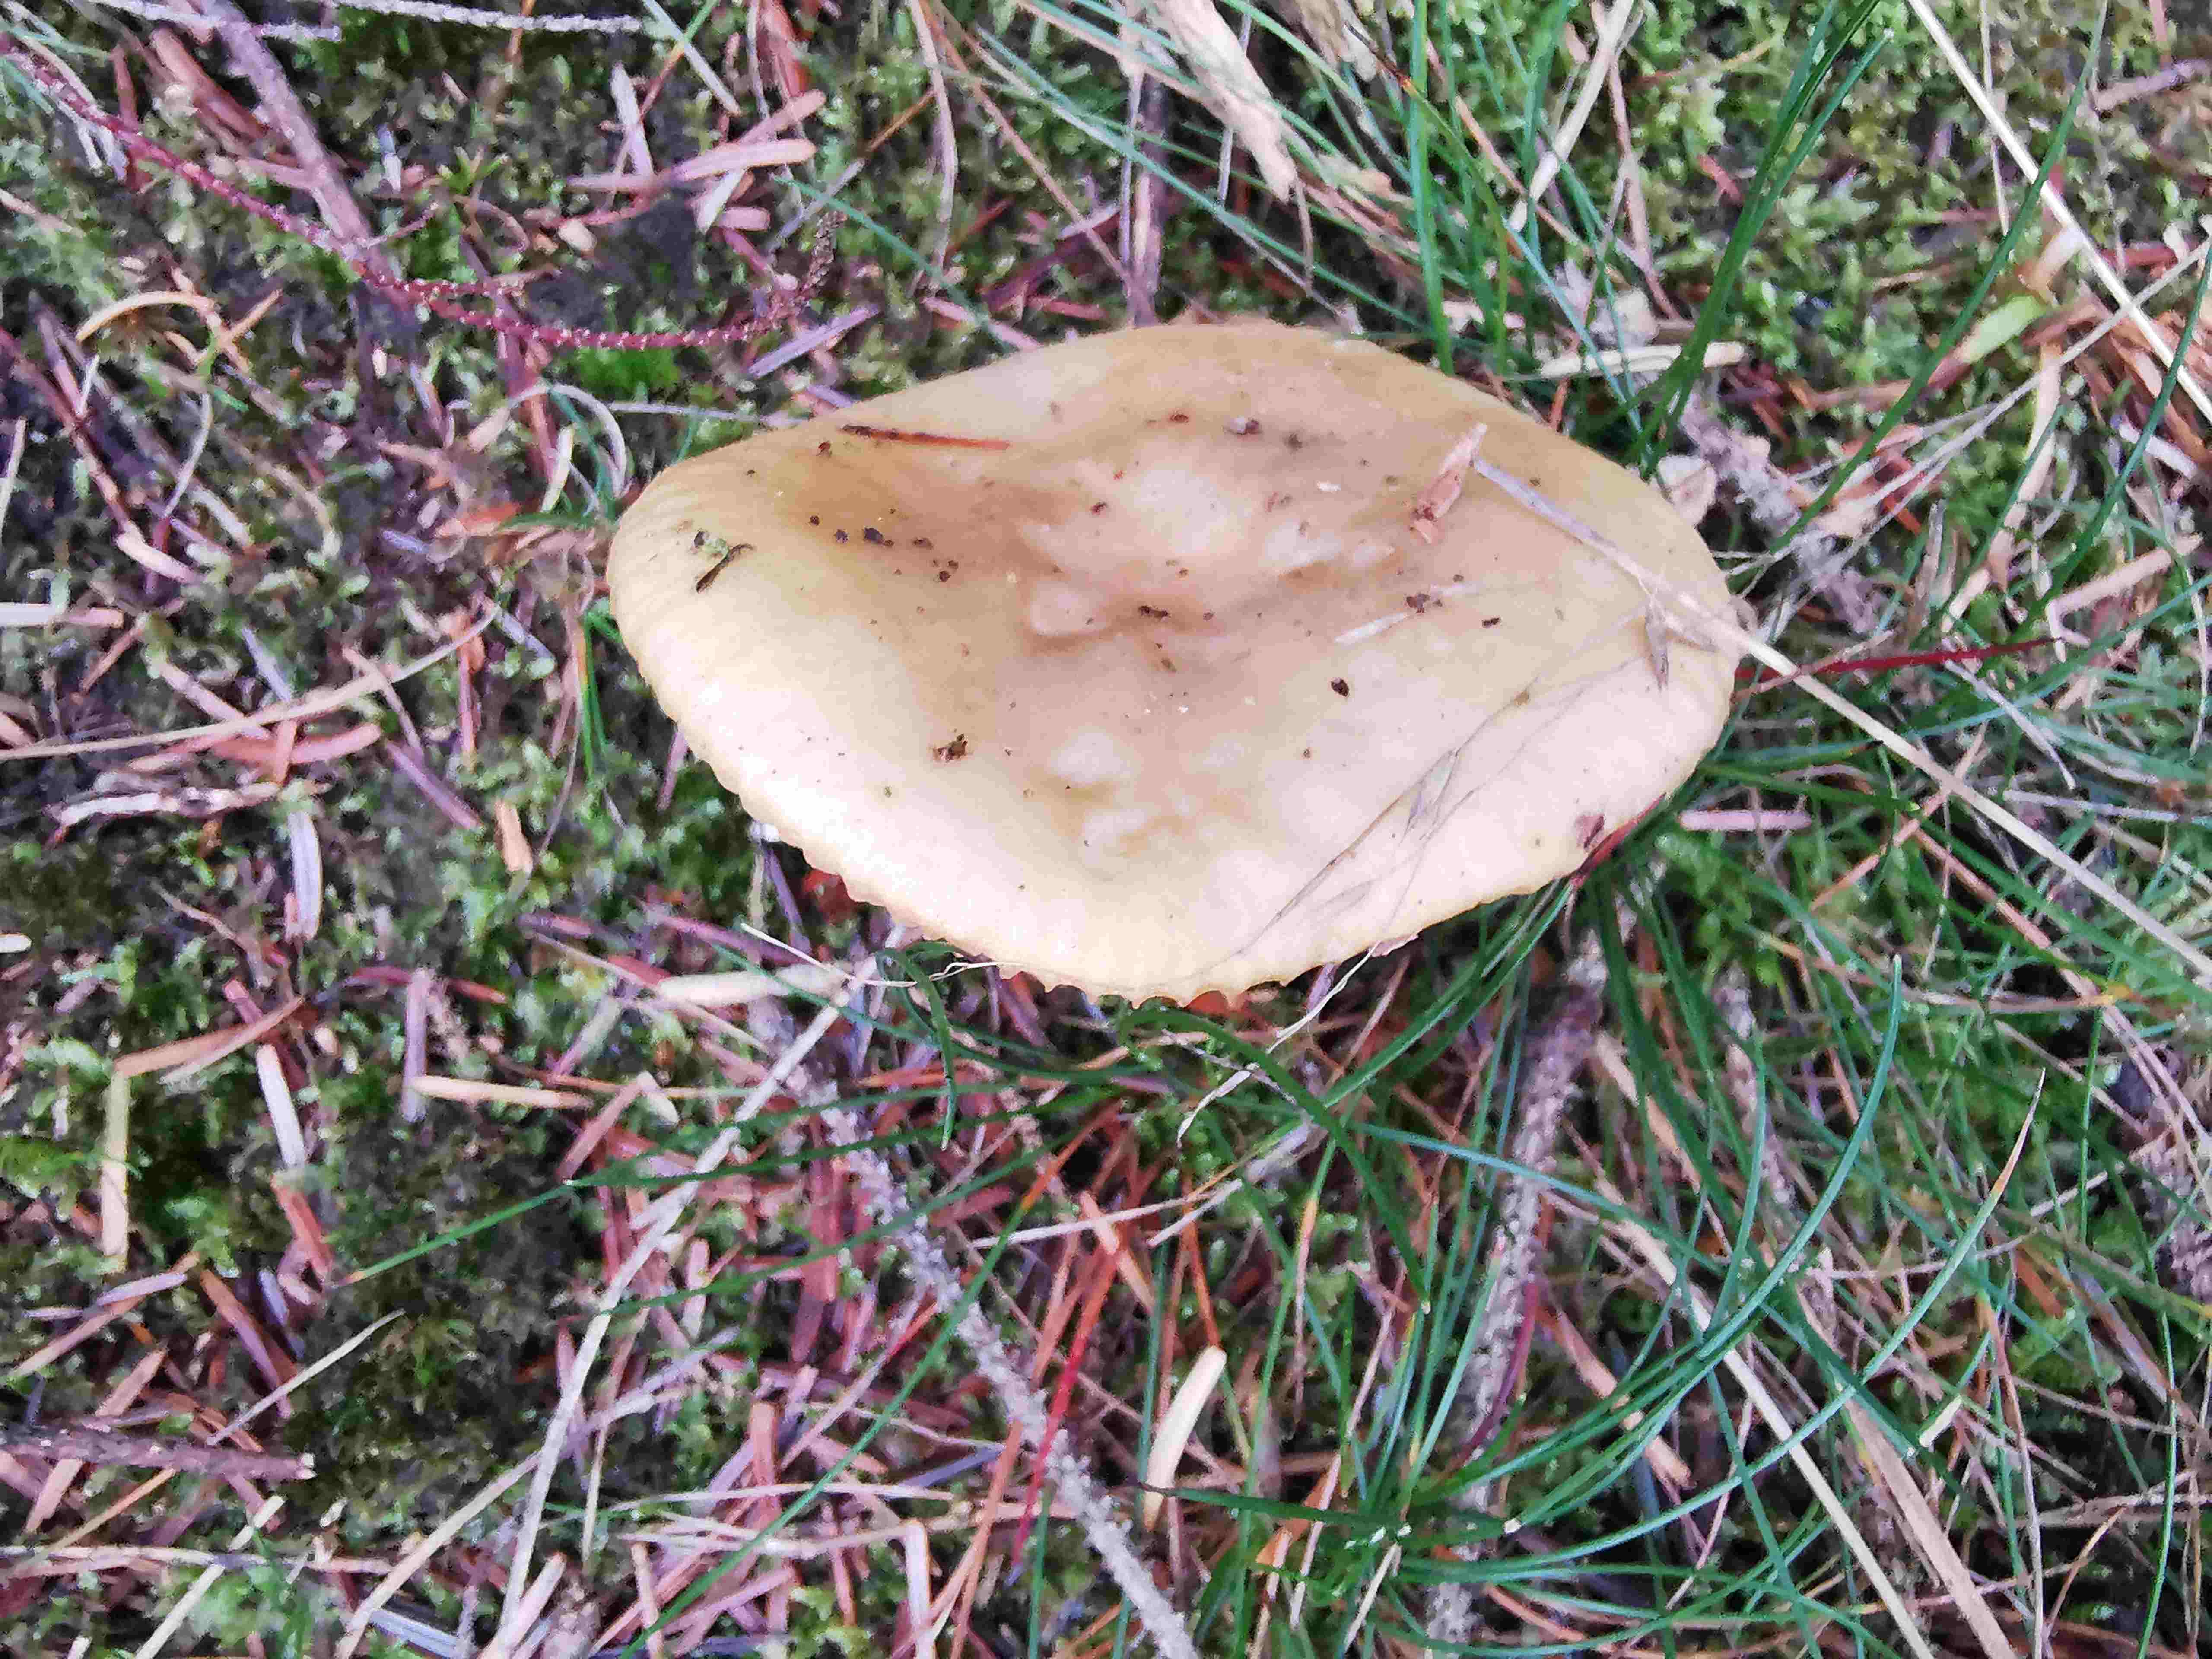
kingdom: Fungi
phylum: Basidiomycota
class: Agaricomycetes
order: Russulales
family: Russulaceae
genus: Russula
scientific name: Russula ochroleuca
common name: okkergul skørhat
